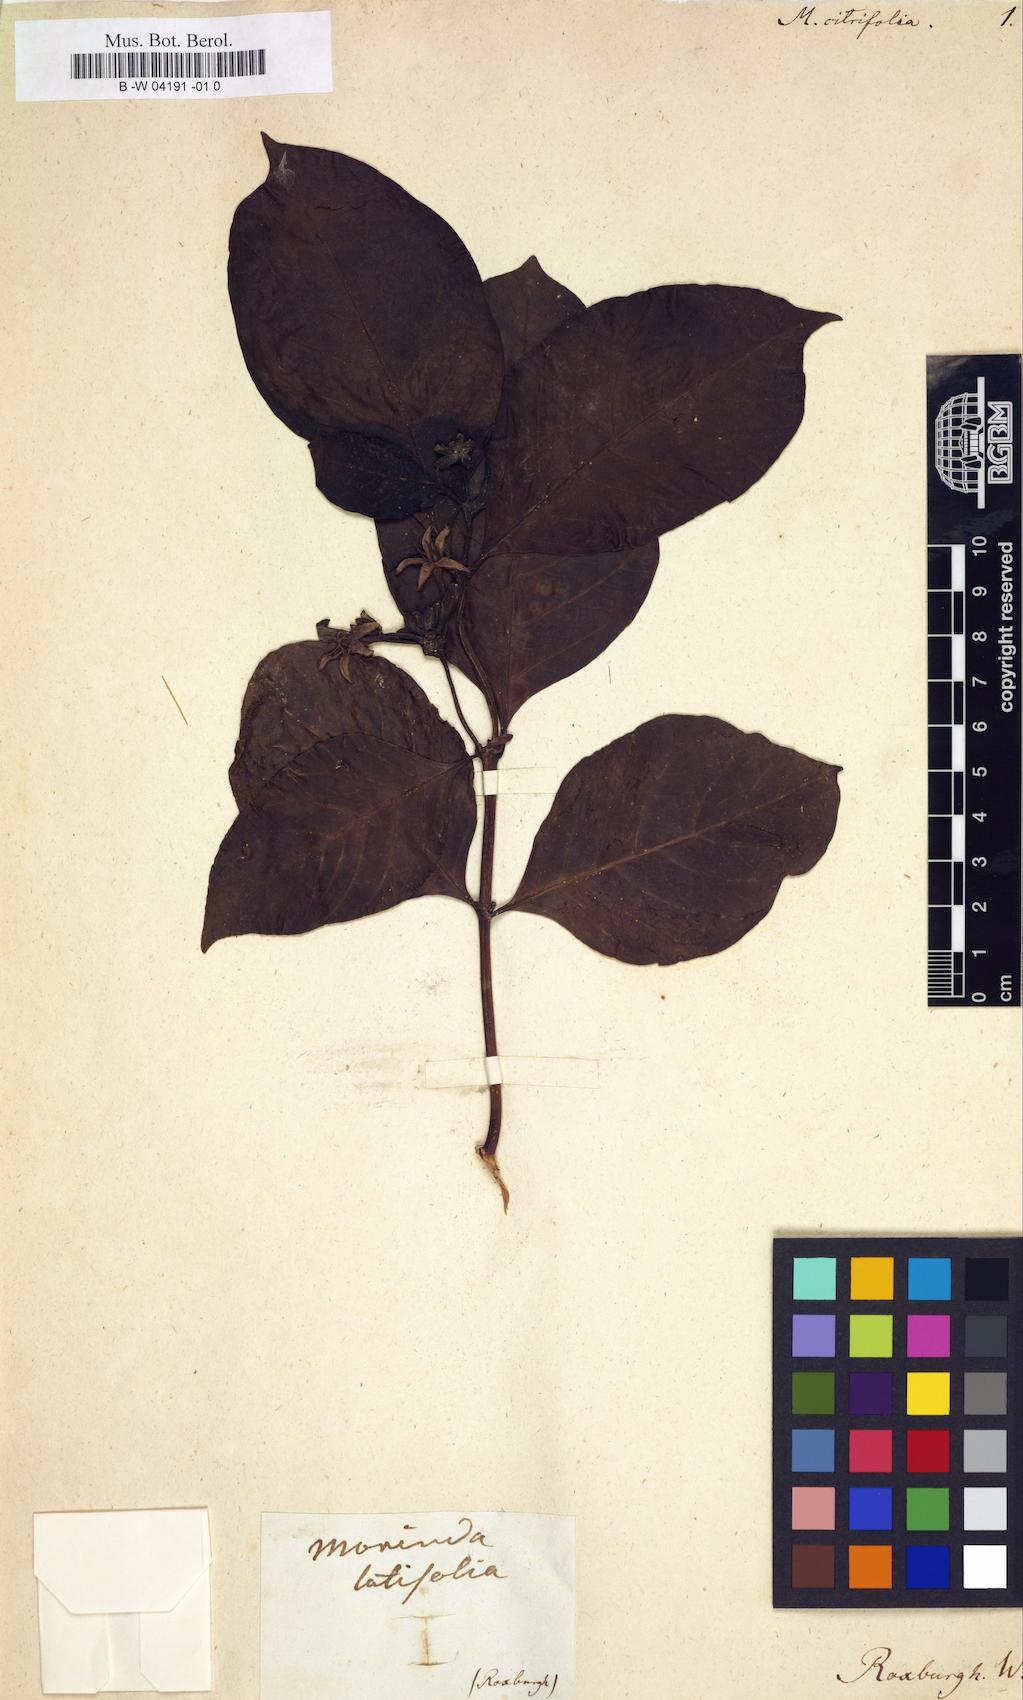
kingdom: Plantae
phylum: Tracheophyta
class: Magnoliopsida
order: Gentianales
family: Rubiaceae
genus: Morinda
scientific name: Morinda citrifolia
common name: Indian-mulberry
